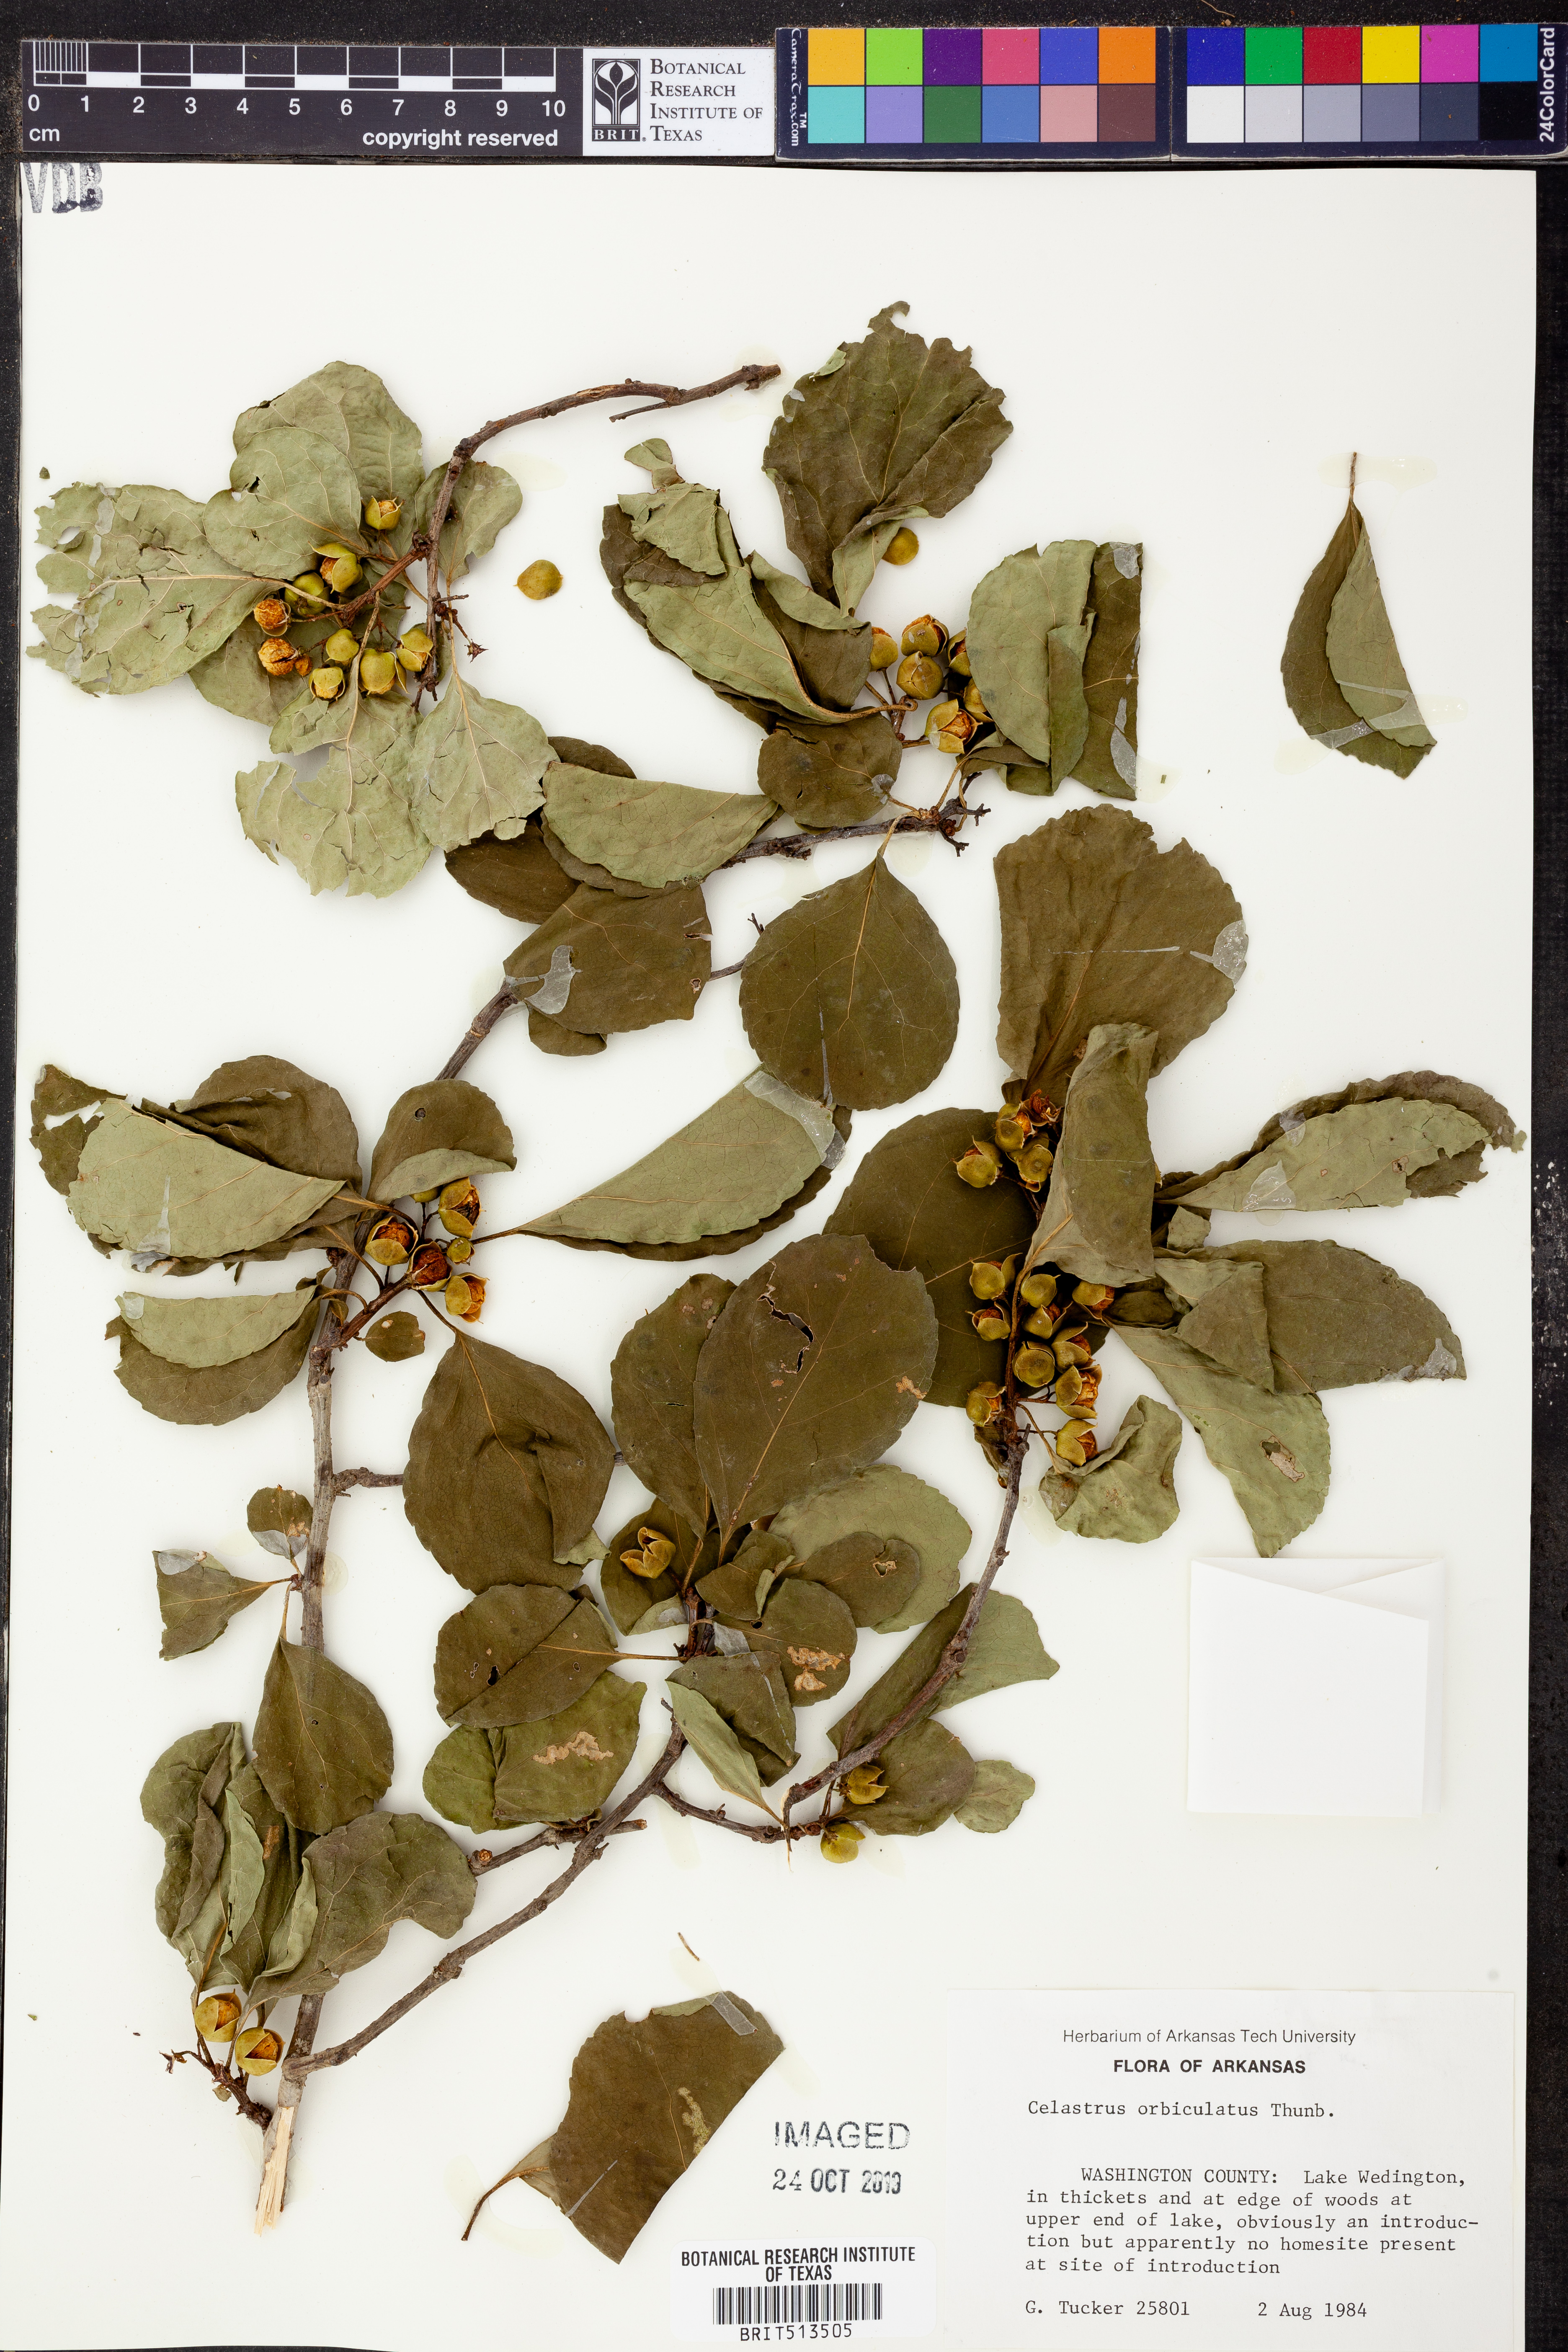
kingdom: Plantae
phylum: Tracheophyta
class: Magnoliopsida
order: Celastrales
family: Celastraceae
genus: Celastrus
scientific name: Celastrus orbiculatus
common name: Oriental bittersweet
